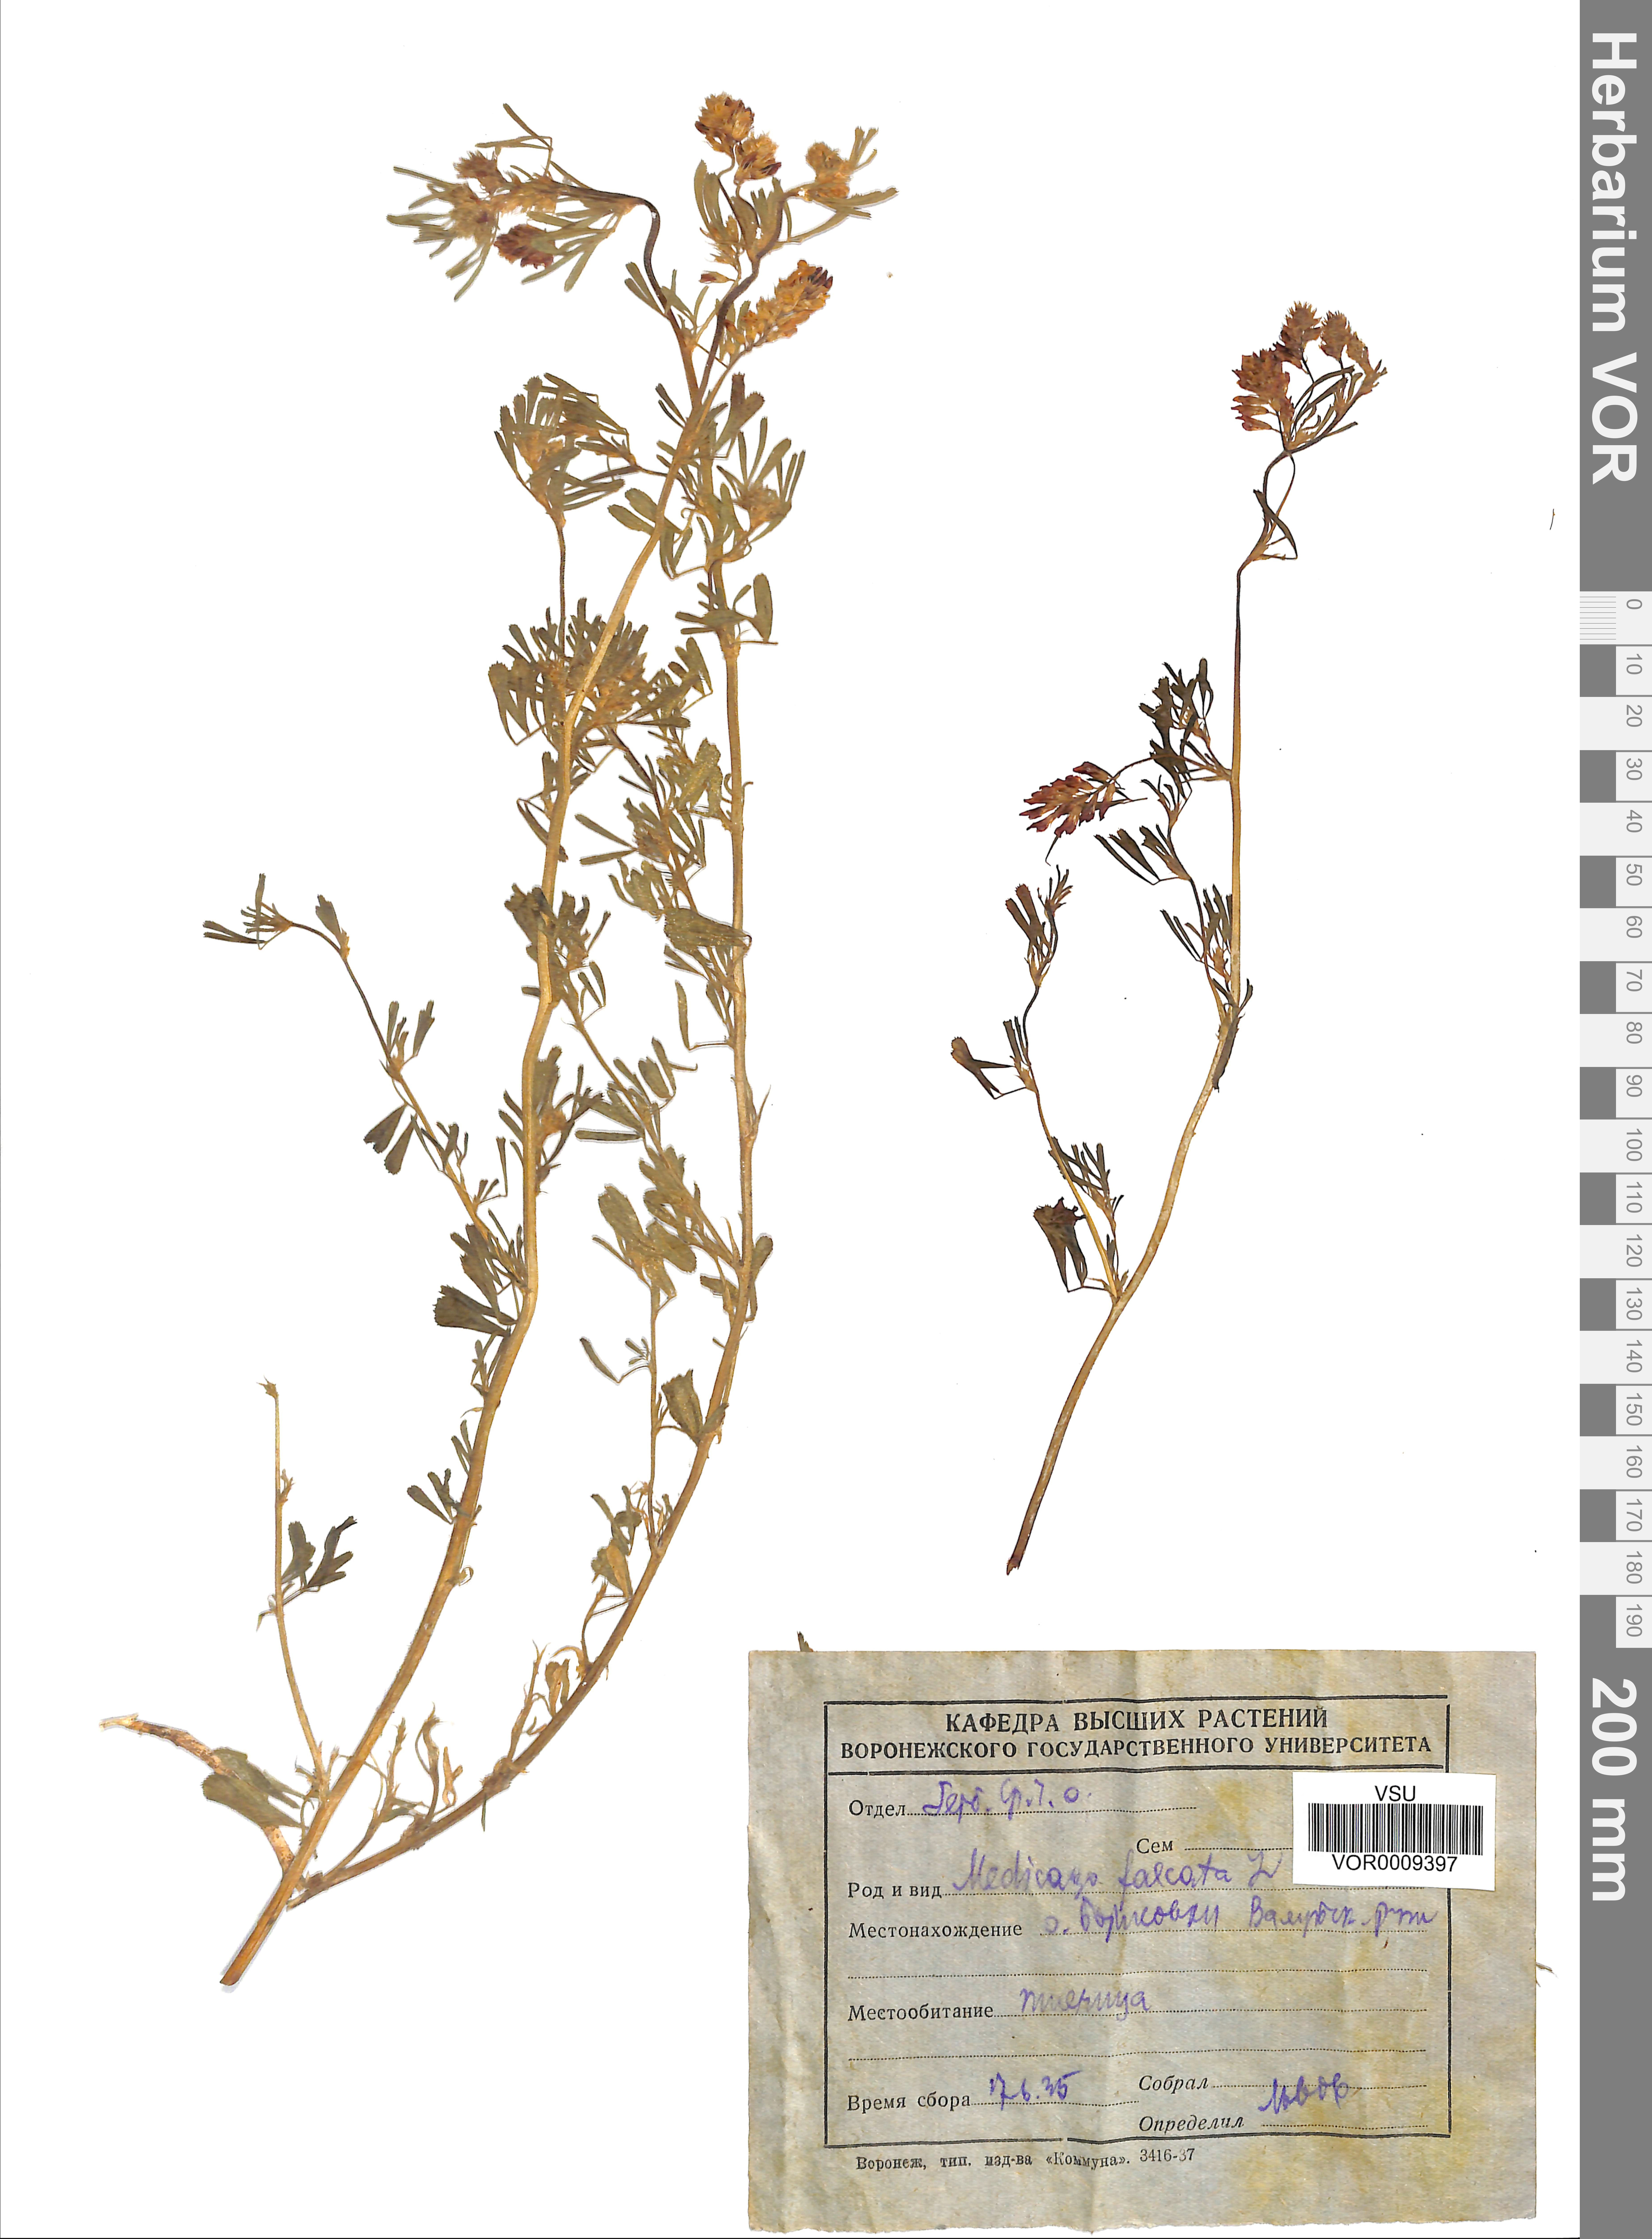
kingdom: Plantae
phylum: Tracheophyta
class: Magnoliopsida
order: Fabales
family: Fabaceae
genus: Medicago
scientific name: Medicago falcata
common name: Sickle medick
